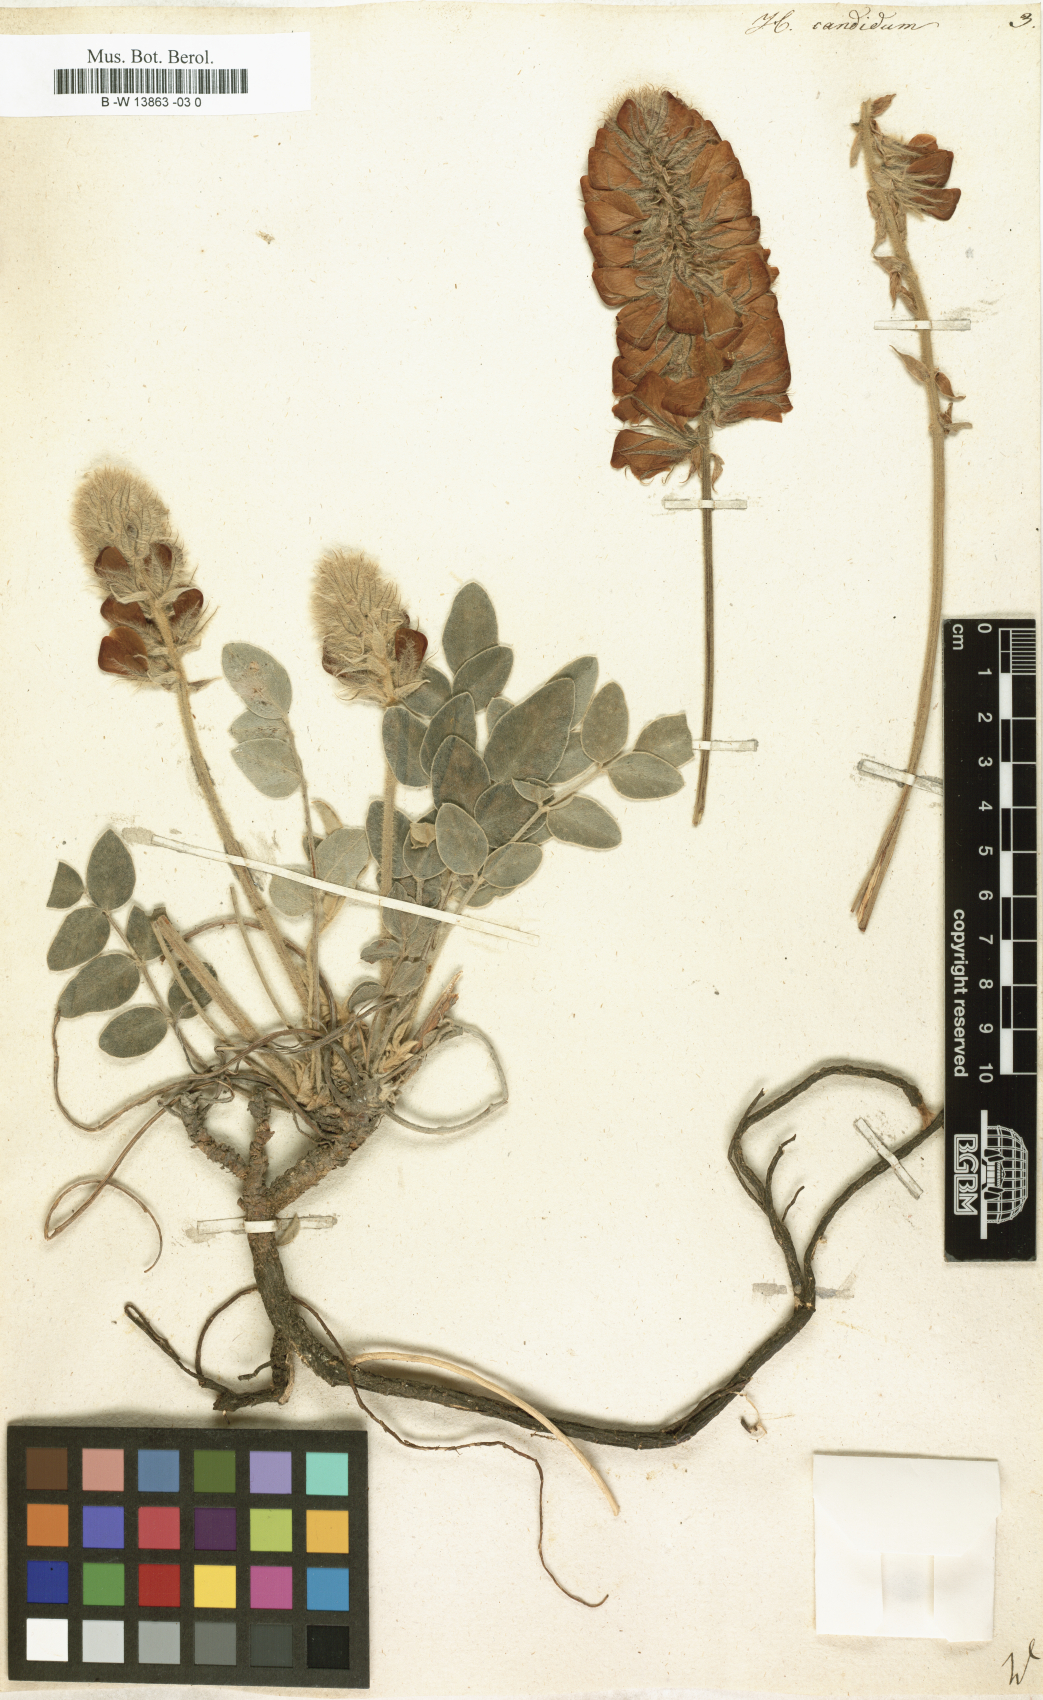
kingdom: Plantae
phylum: Tracheophyta
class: Magnoliopsida
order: Fabales
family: Fabaceae
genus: Hedysarum
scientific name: Hedysarum candidum
